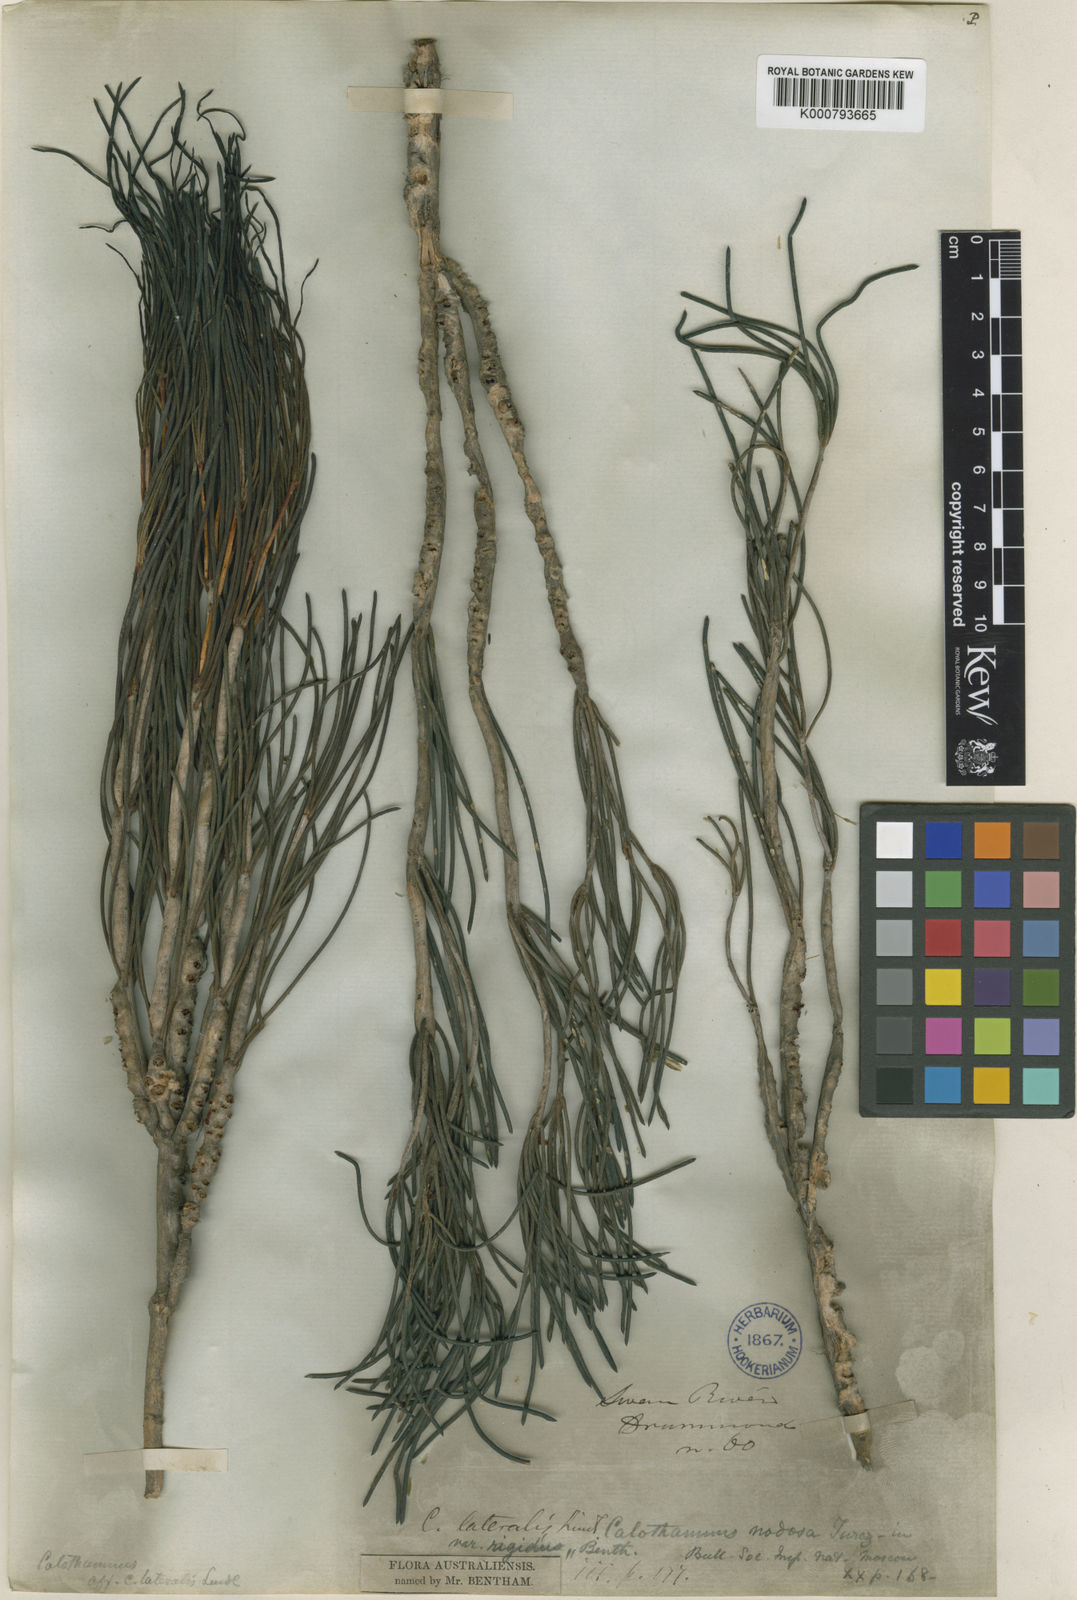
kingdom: Plantae
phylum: Tracheophyta
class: Magnoliopsida
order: Myrtales
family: Myrtaceae
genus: Melaleuca
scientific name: Melaleuca lateralis
